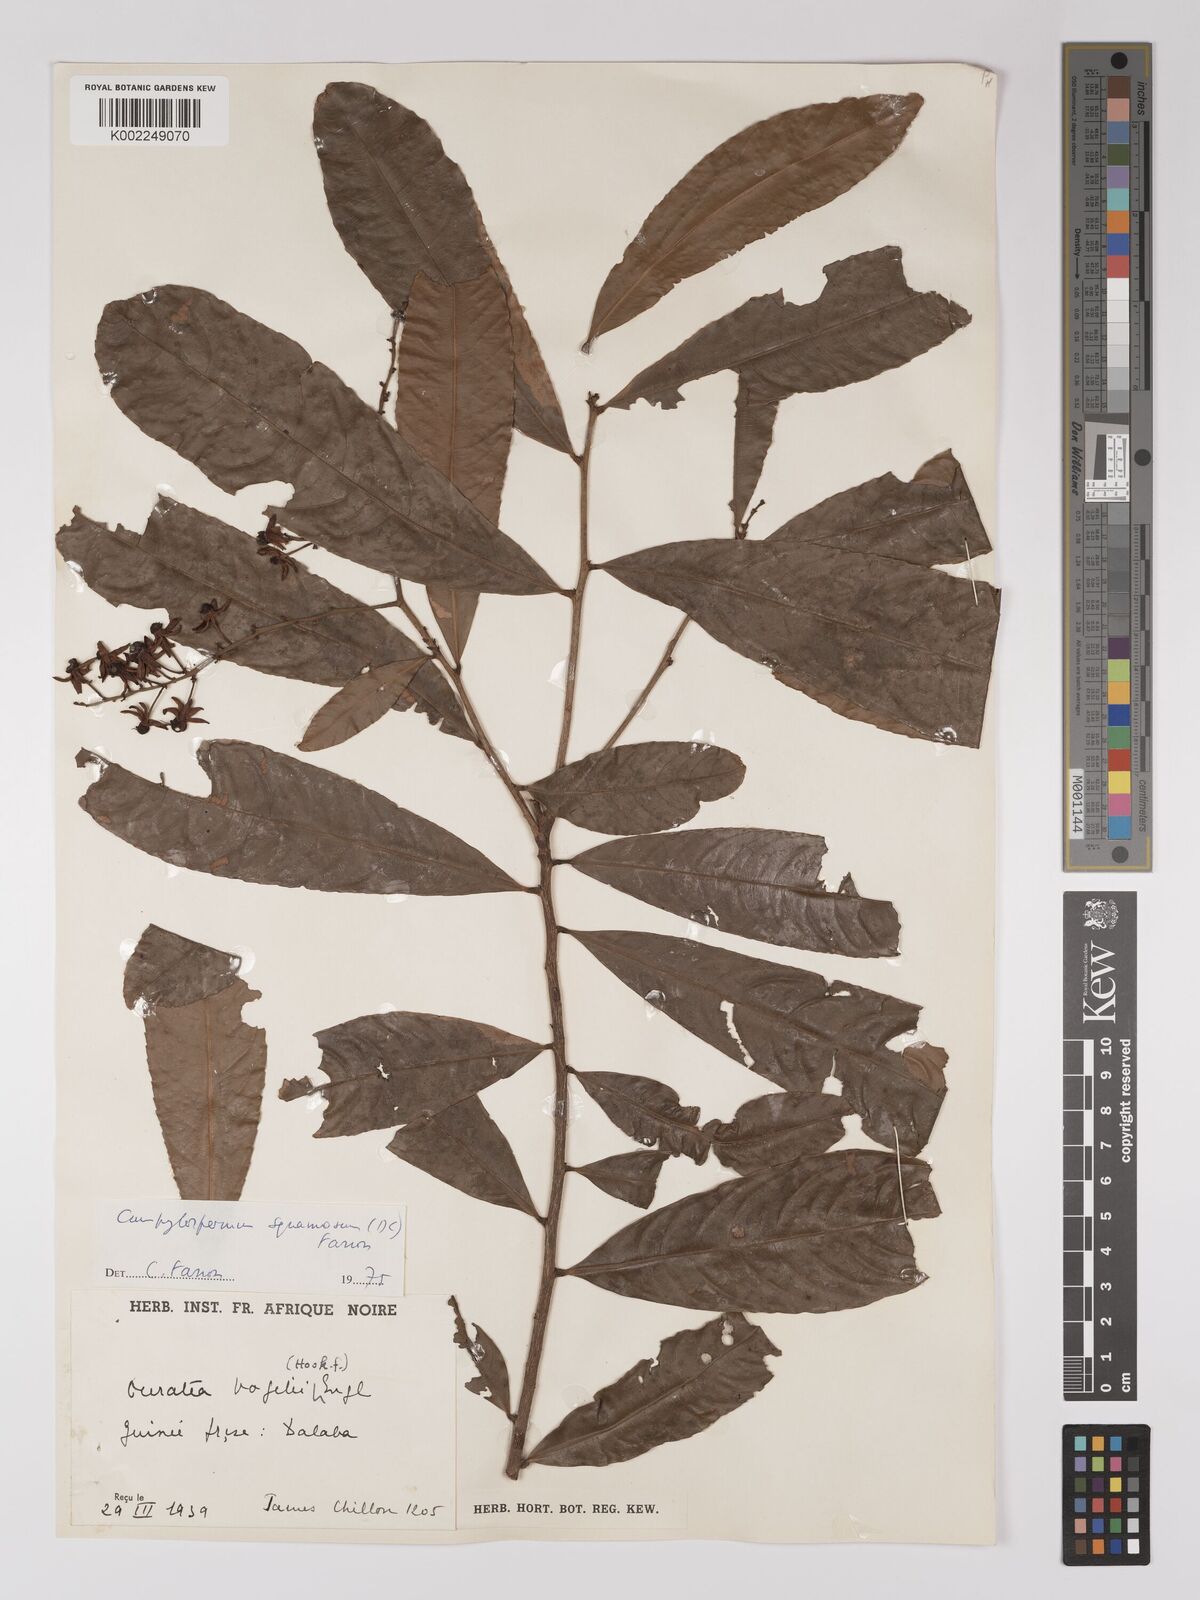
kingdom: Plantae
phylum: Tracheophyta
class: Magnoliopsida
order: Malpighiales
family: Ochnaceae
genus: Campylospermum
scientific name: Campylospermum squamosum
